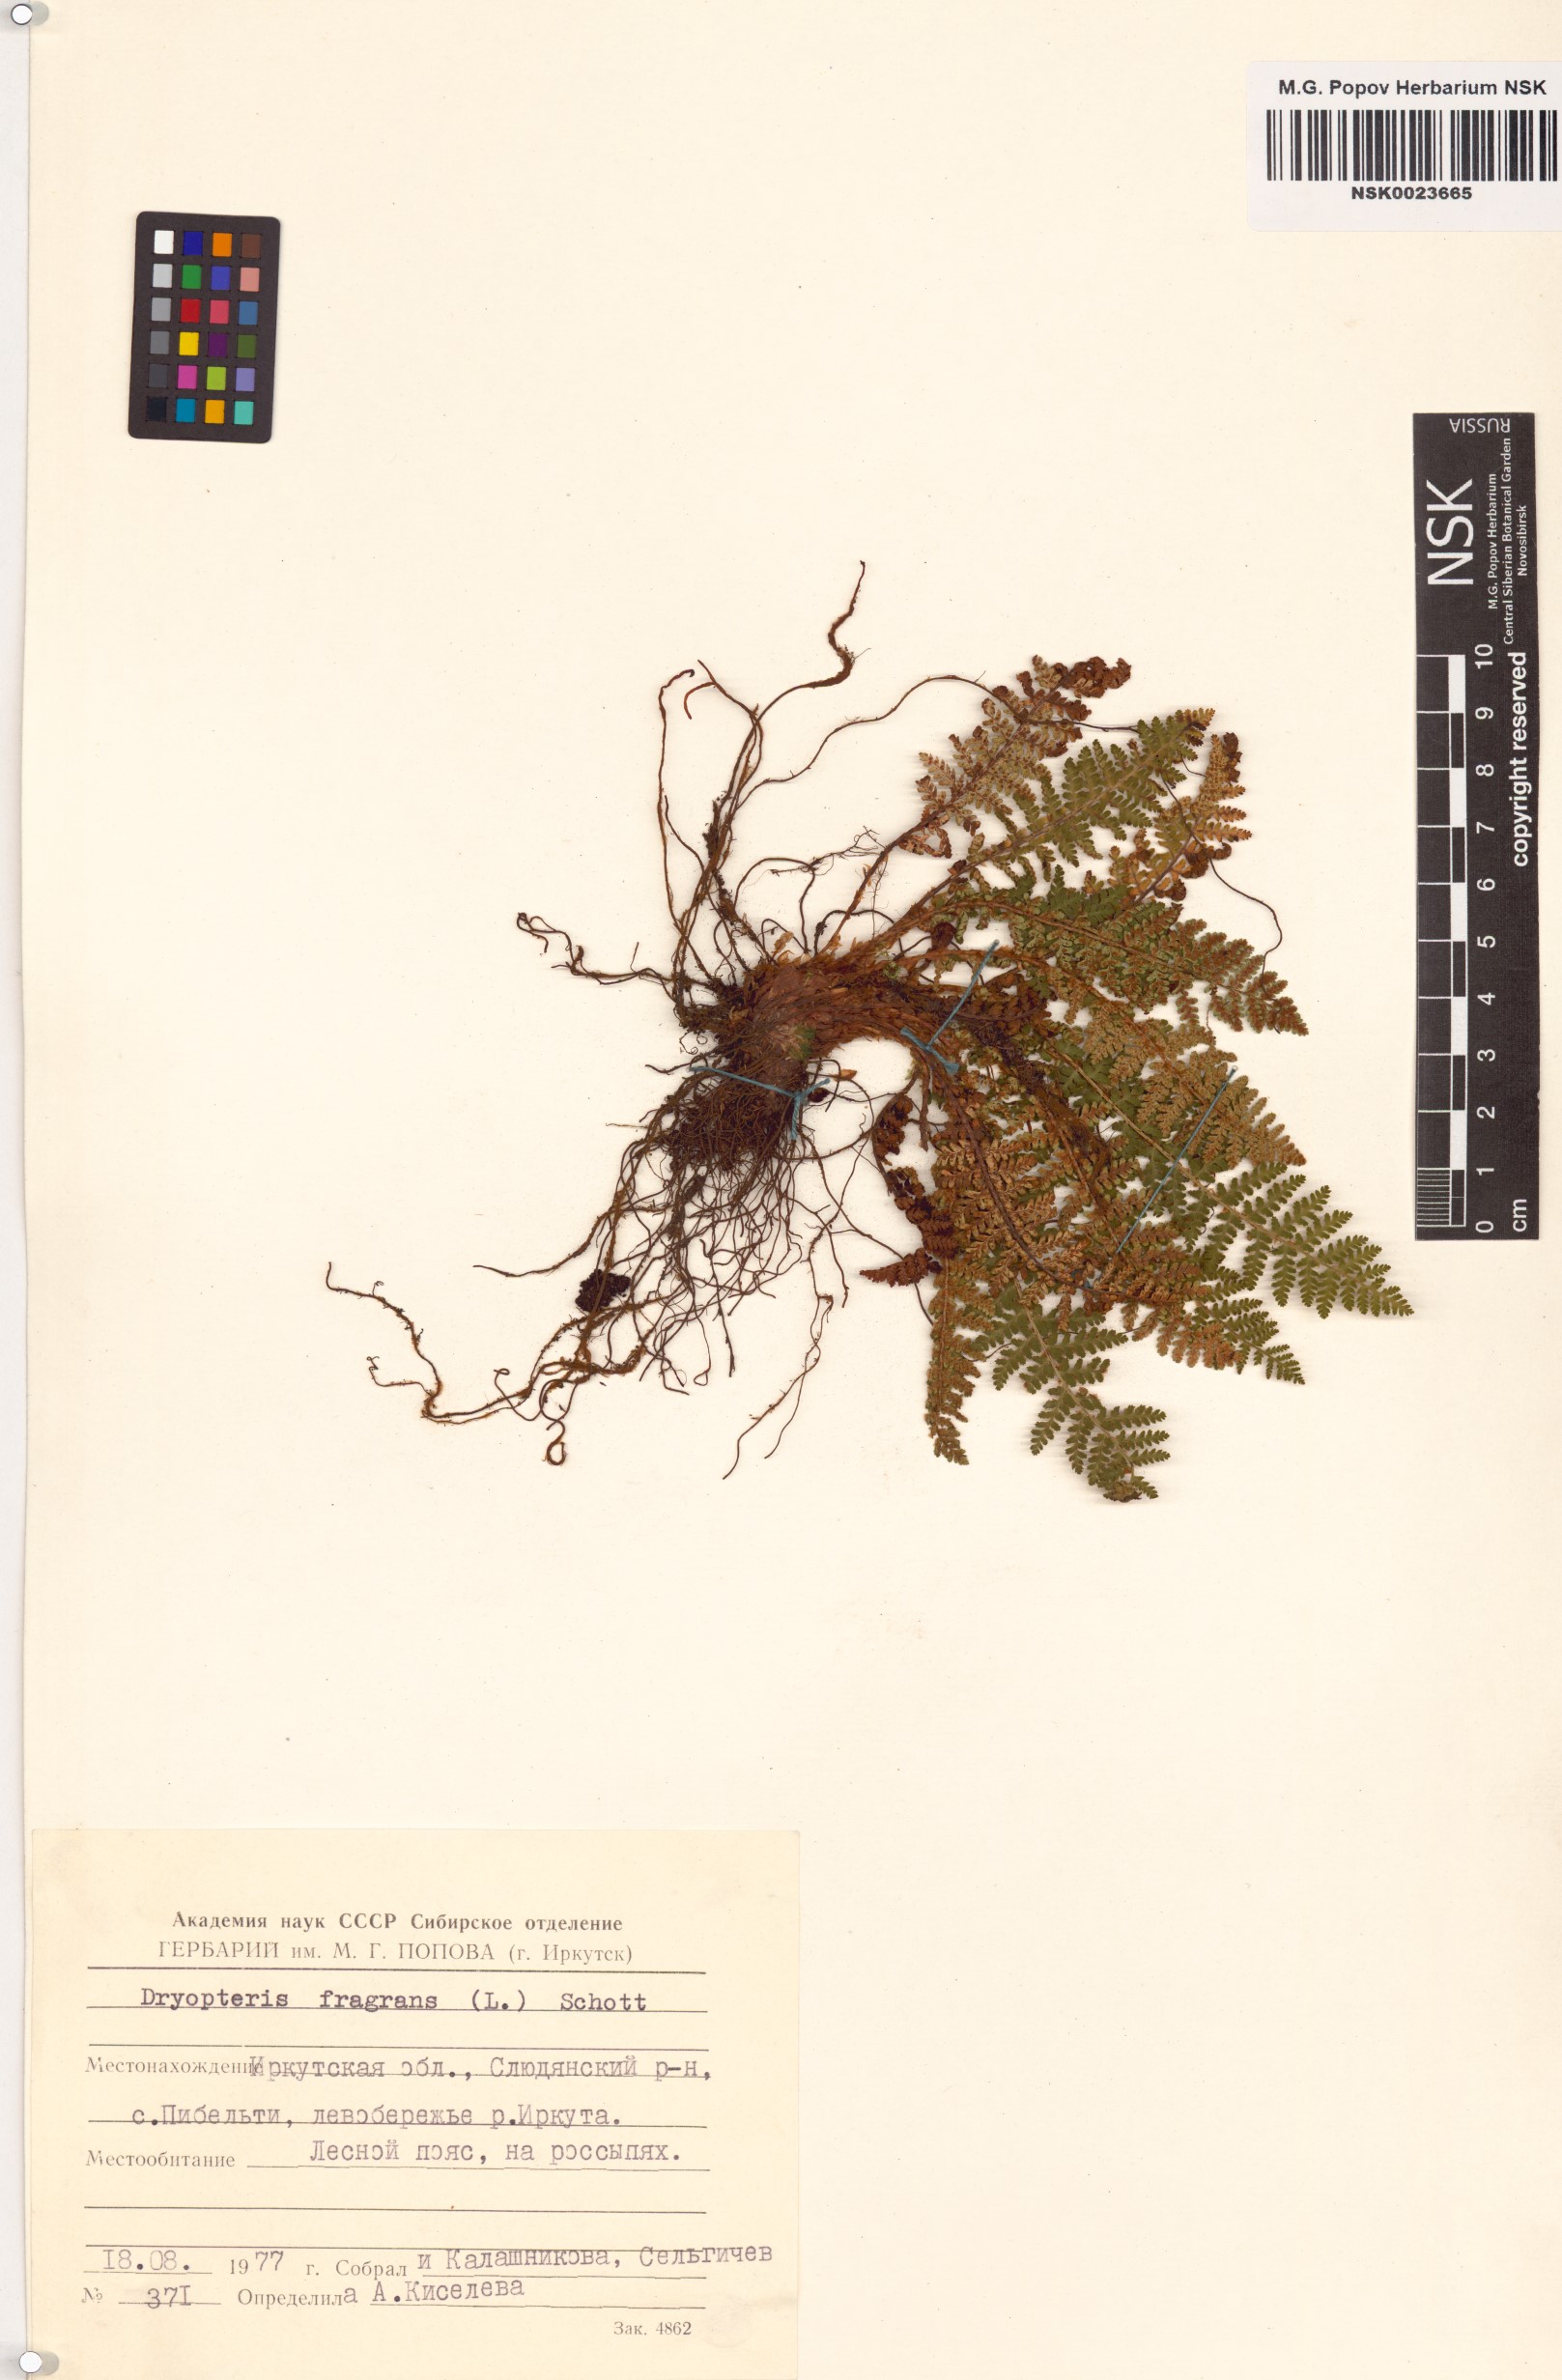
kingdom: Plantae
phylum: Tracheophyta
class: Polypodiopsida
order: Polypodiales
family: Dryopteridaceae
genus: Dryopteris
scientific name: Dryopteris fragrans
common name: Fragrant wood fern
